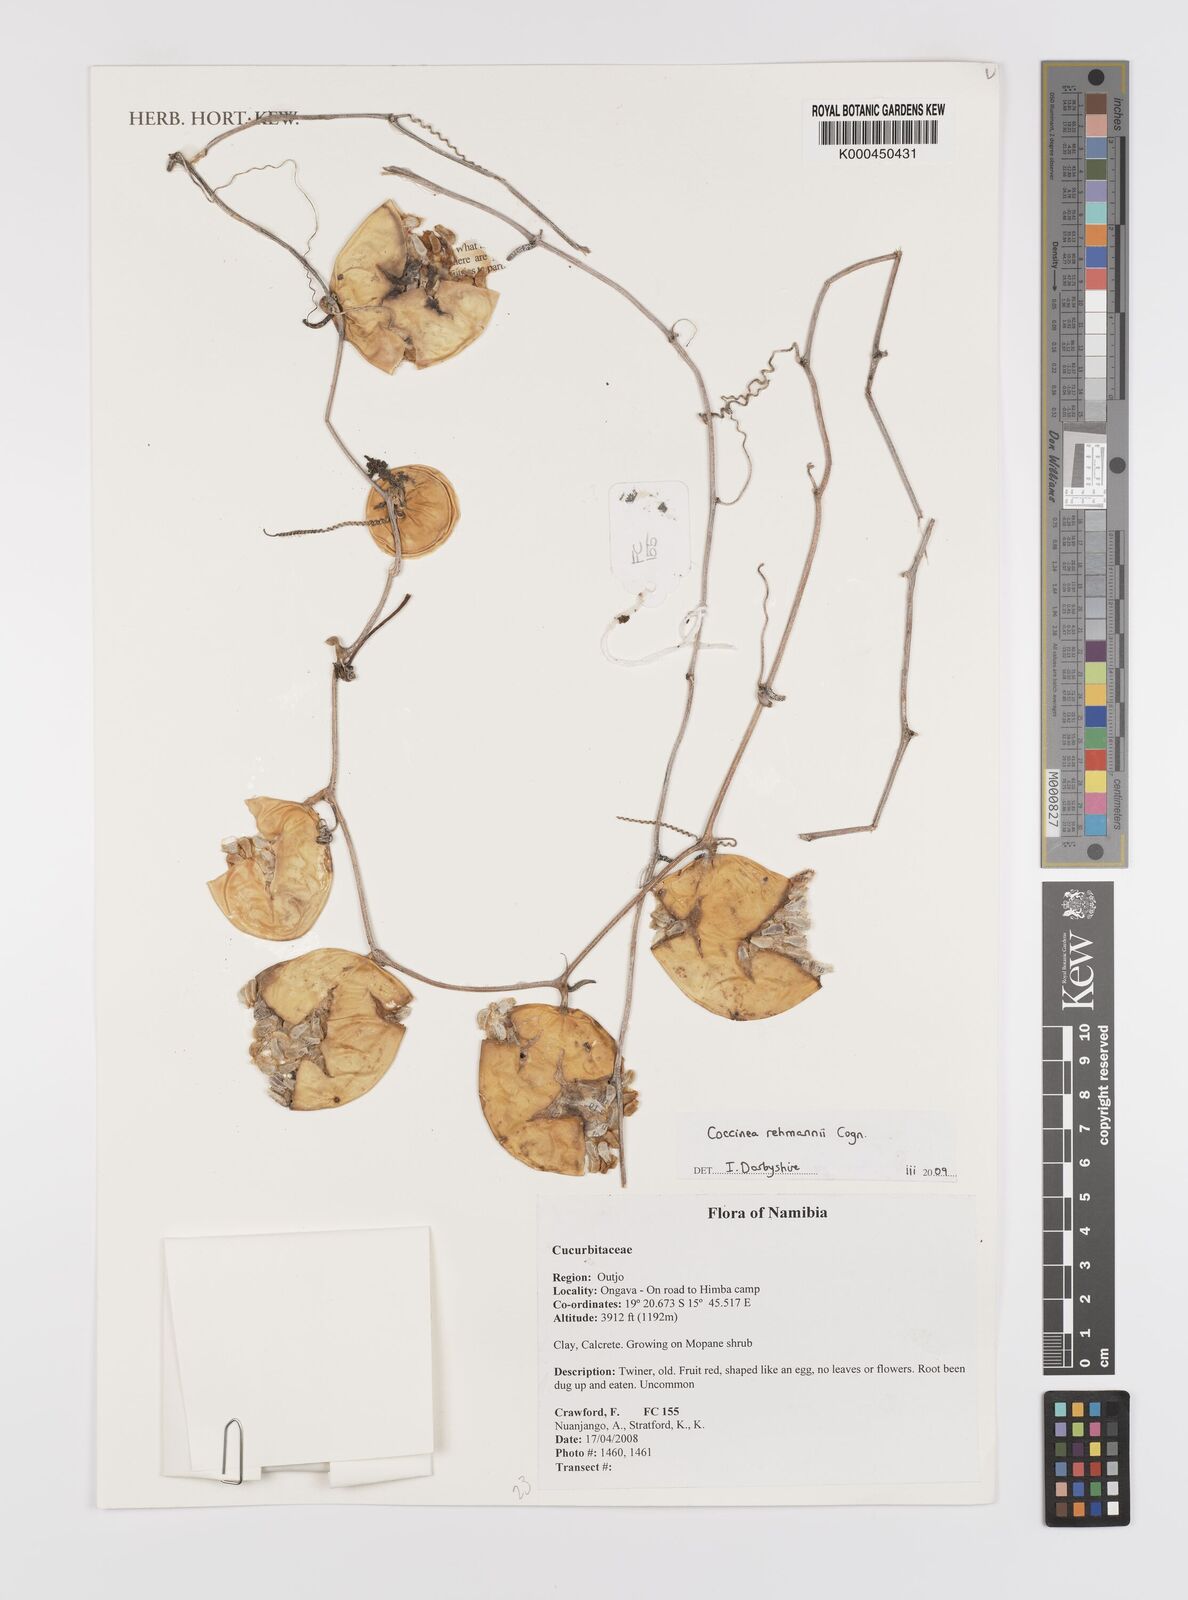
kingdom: Plantae
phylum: Tracheophyta
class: Magnoliopsida
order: Cucurbitales
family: Cucurbitaceae
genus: Coccinia
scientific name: Coccinia rehmannii
